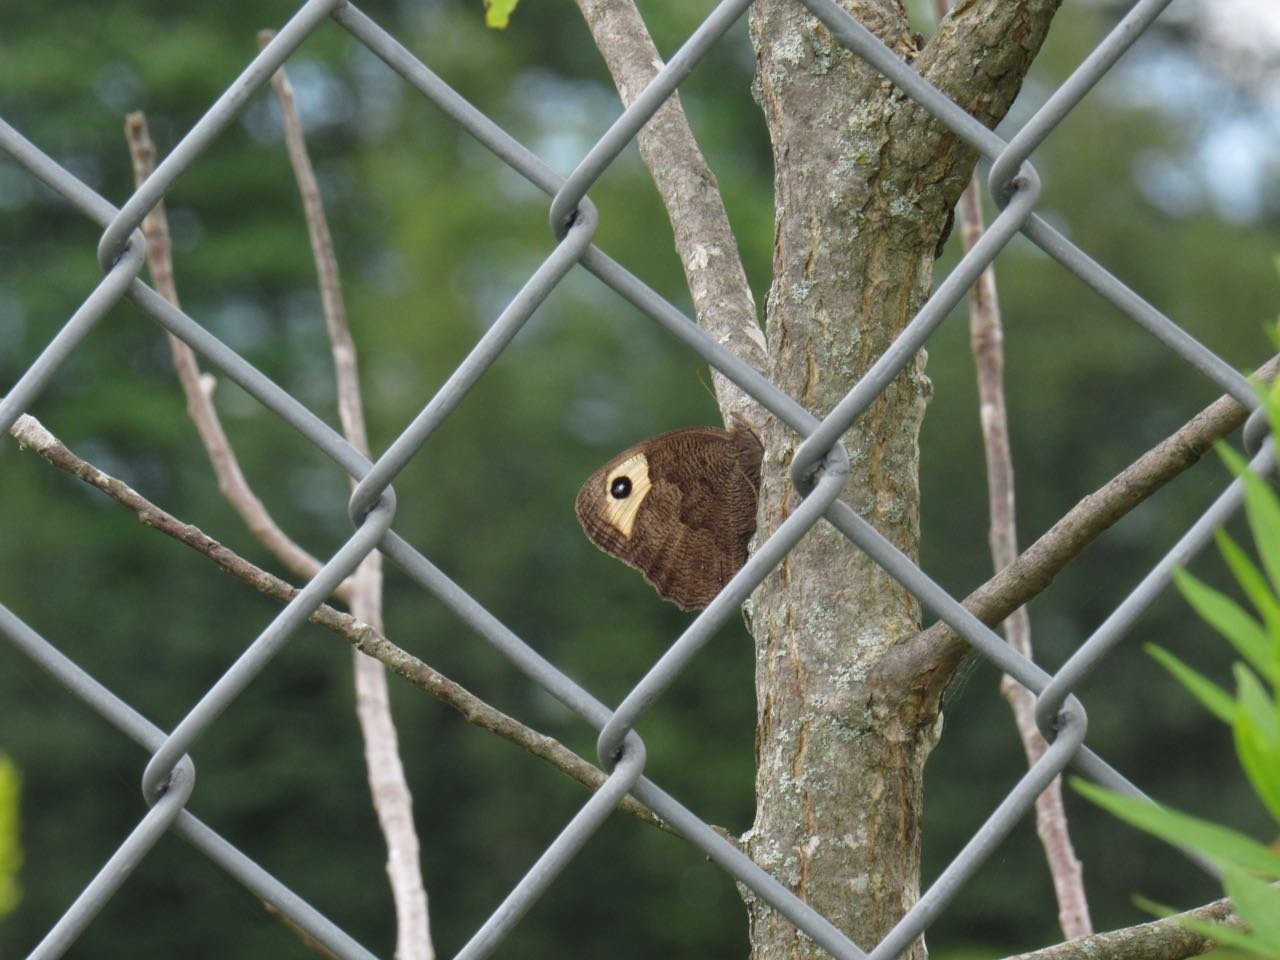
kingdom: Animalia
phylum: Arthropoda
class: Insecta
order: Lepidoptera
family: Nymphalidae
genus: Cercyonis
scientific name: Cercyonis pegala
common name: Common Wood-Nymph
